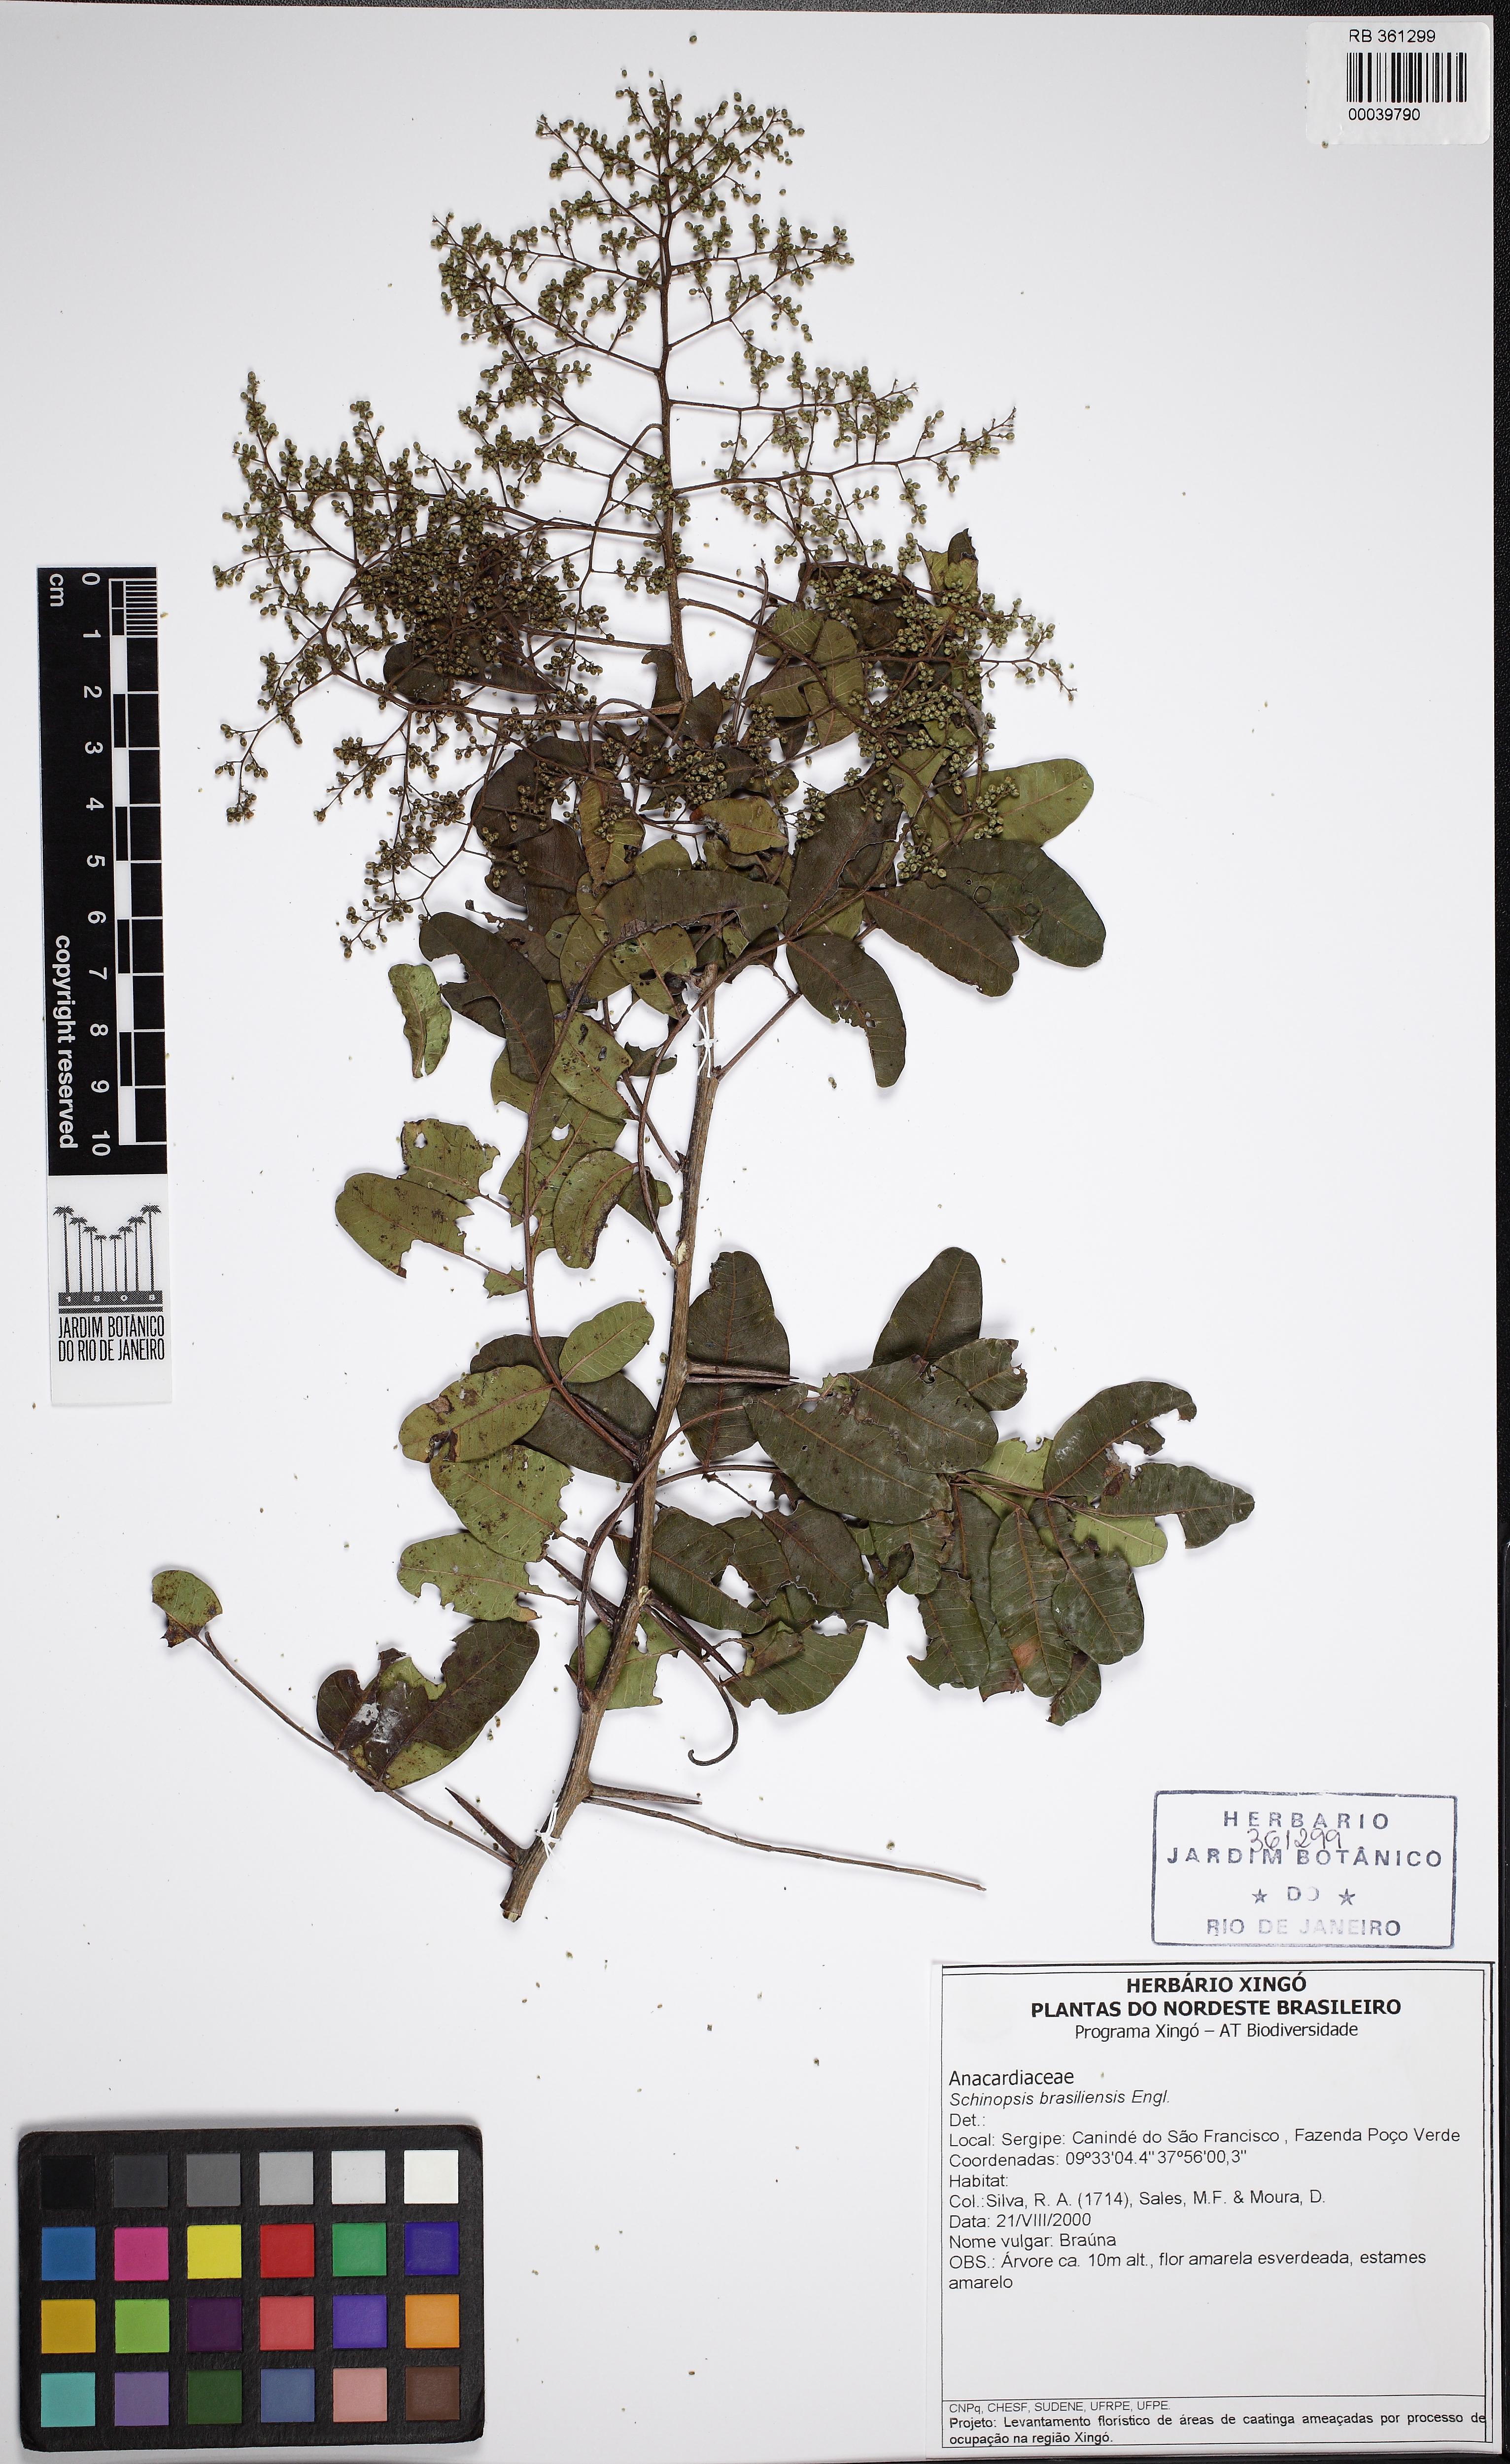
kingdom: Plantae
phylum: Tracheophyta
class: Magnoliopsida
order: Sapindales
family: Anacardiaceae
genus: Schinopsis
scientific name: Schinopsis brasiliensis
